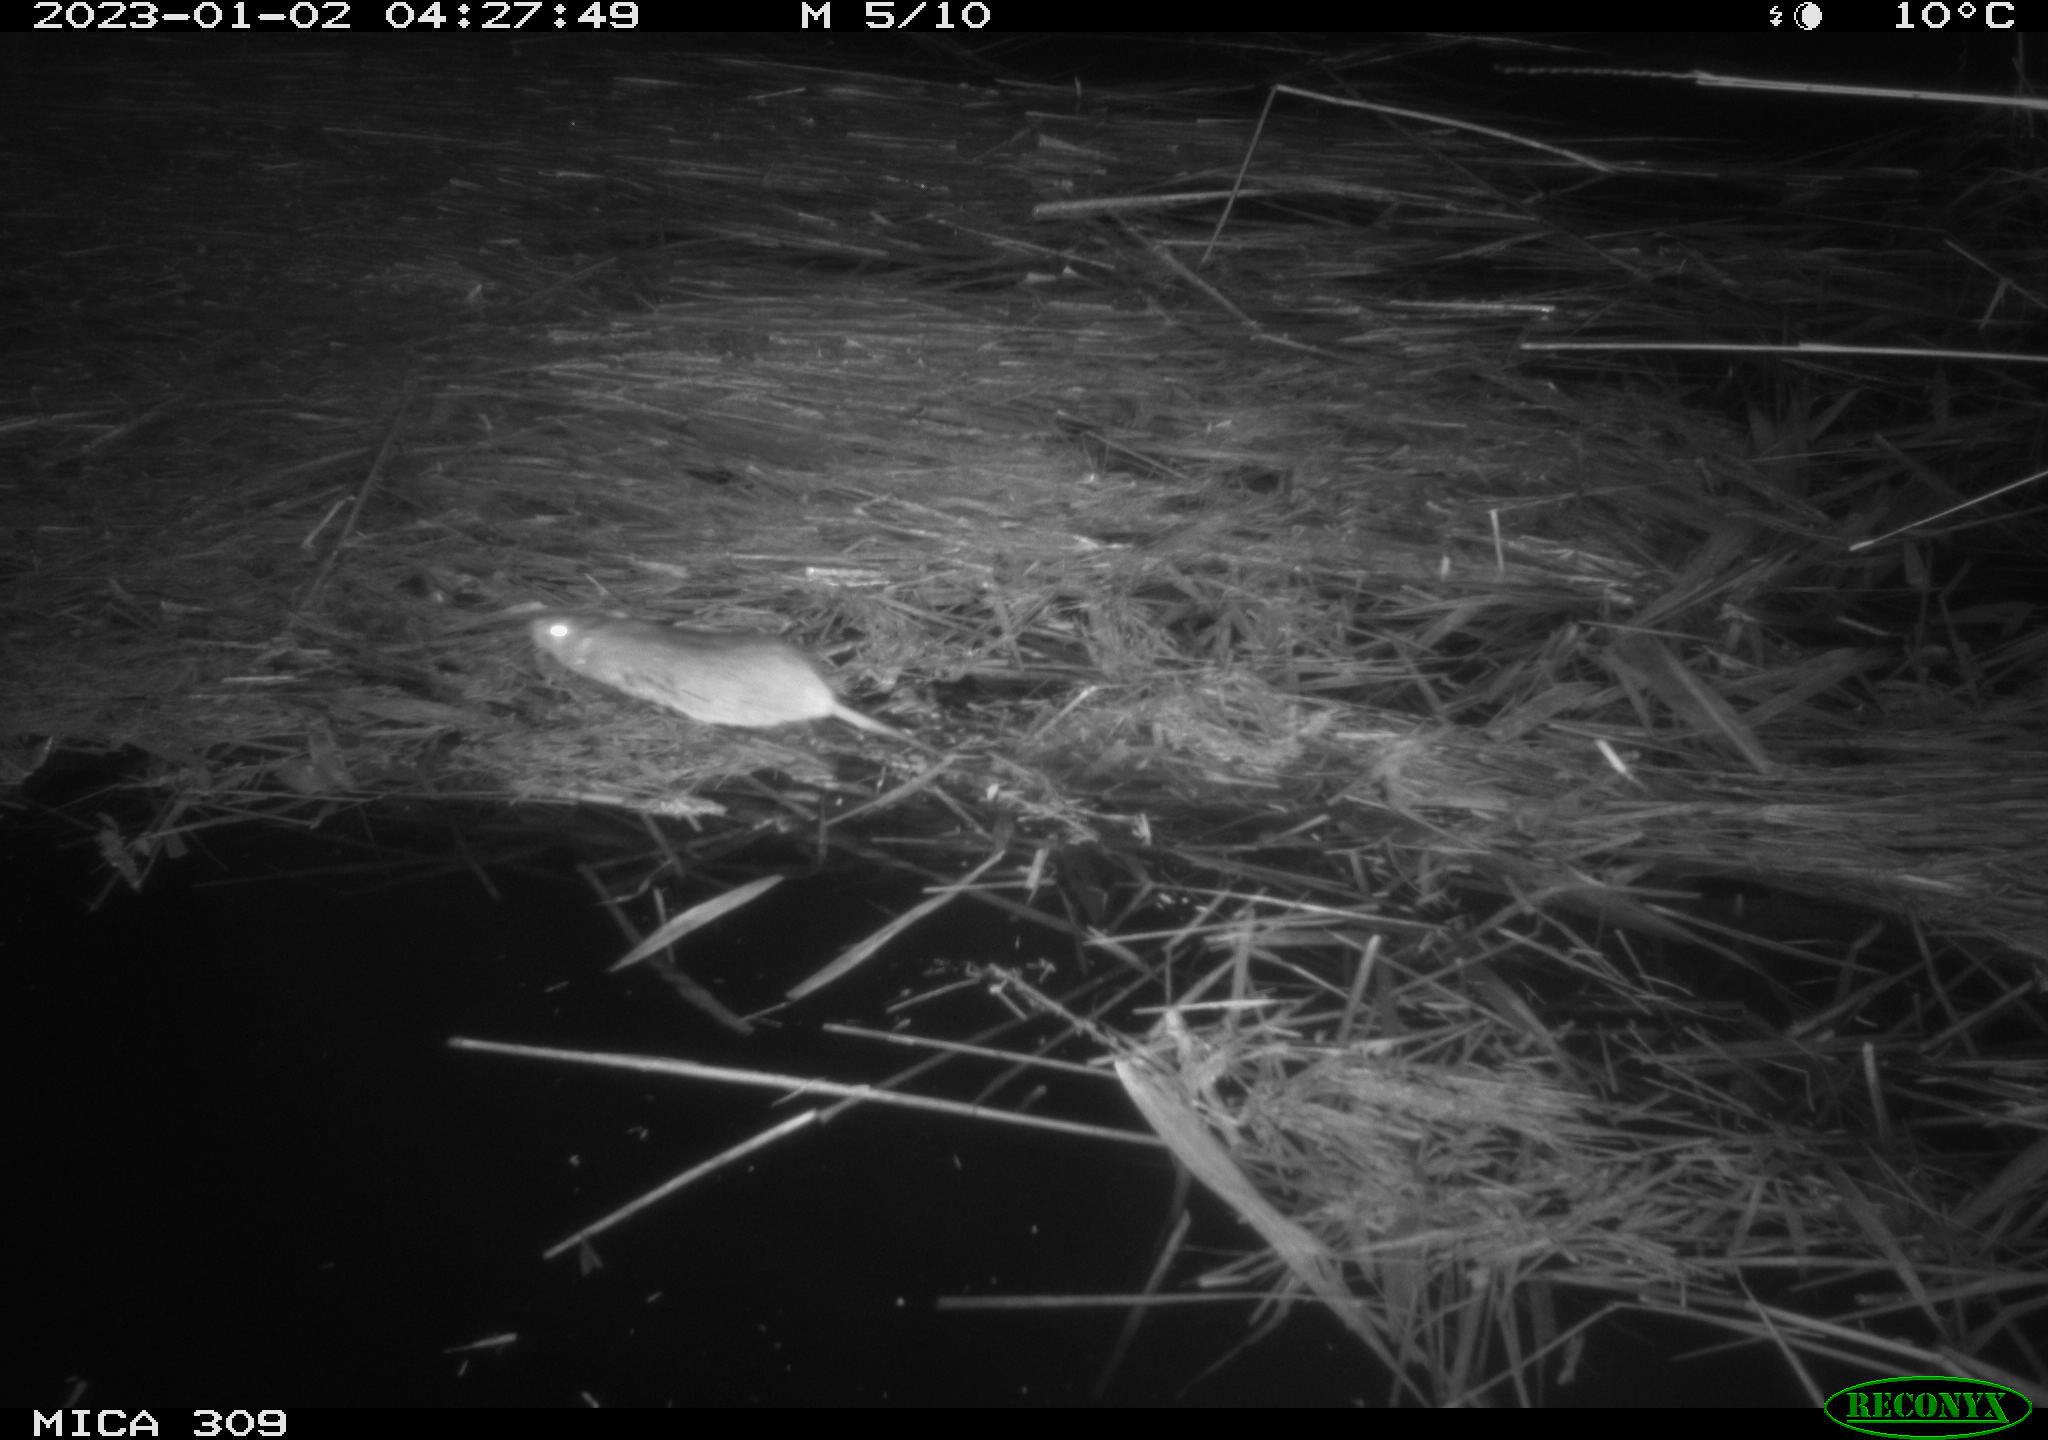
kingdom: Animalia
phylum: Chordata
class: Mammalia
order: Rodentia
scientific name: Rodentia
